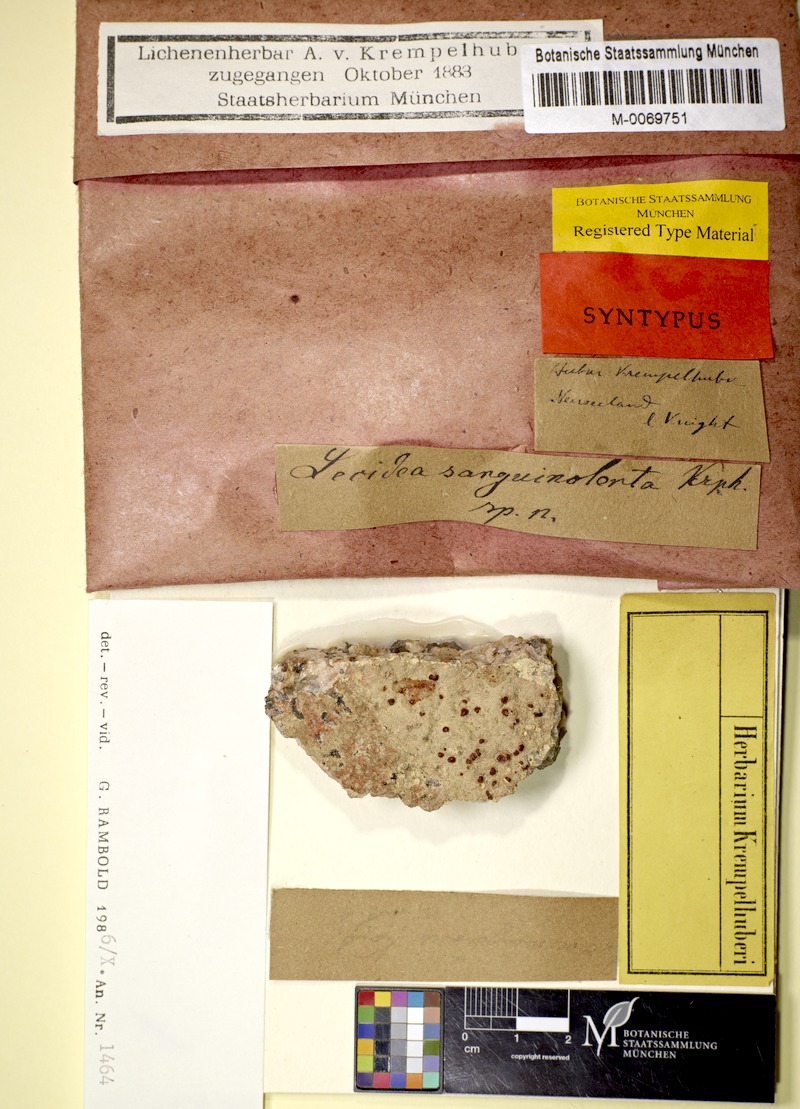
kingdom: Fungi
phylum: Ascomycota
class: Lecanoromycetes
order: Lecanorales
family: Ramboldiaceae
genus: Ramboldia
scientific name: Ramboldia sanguinolenta
